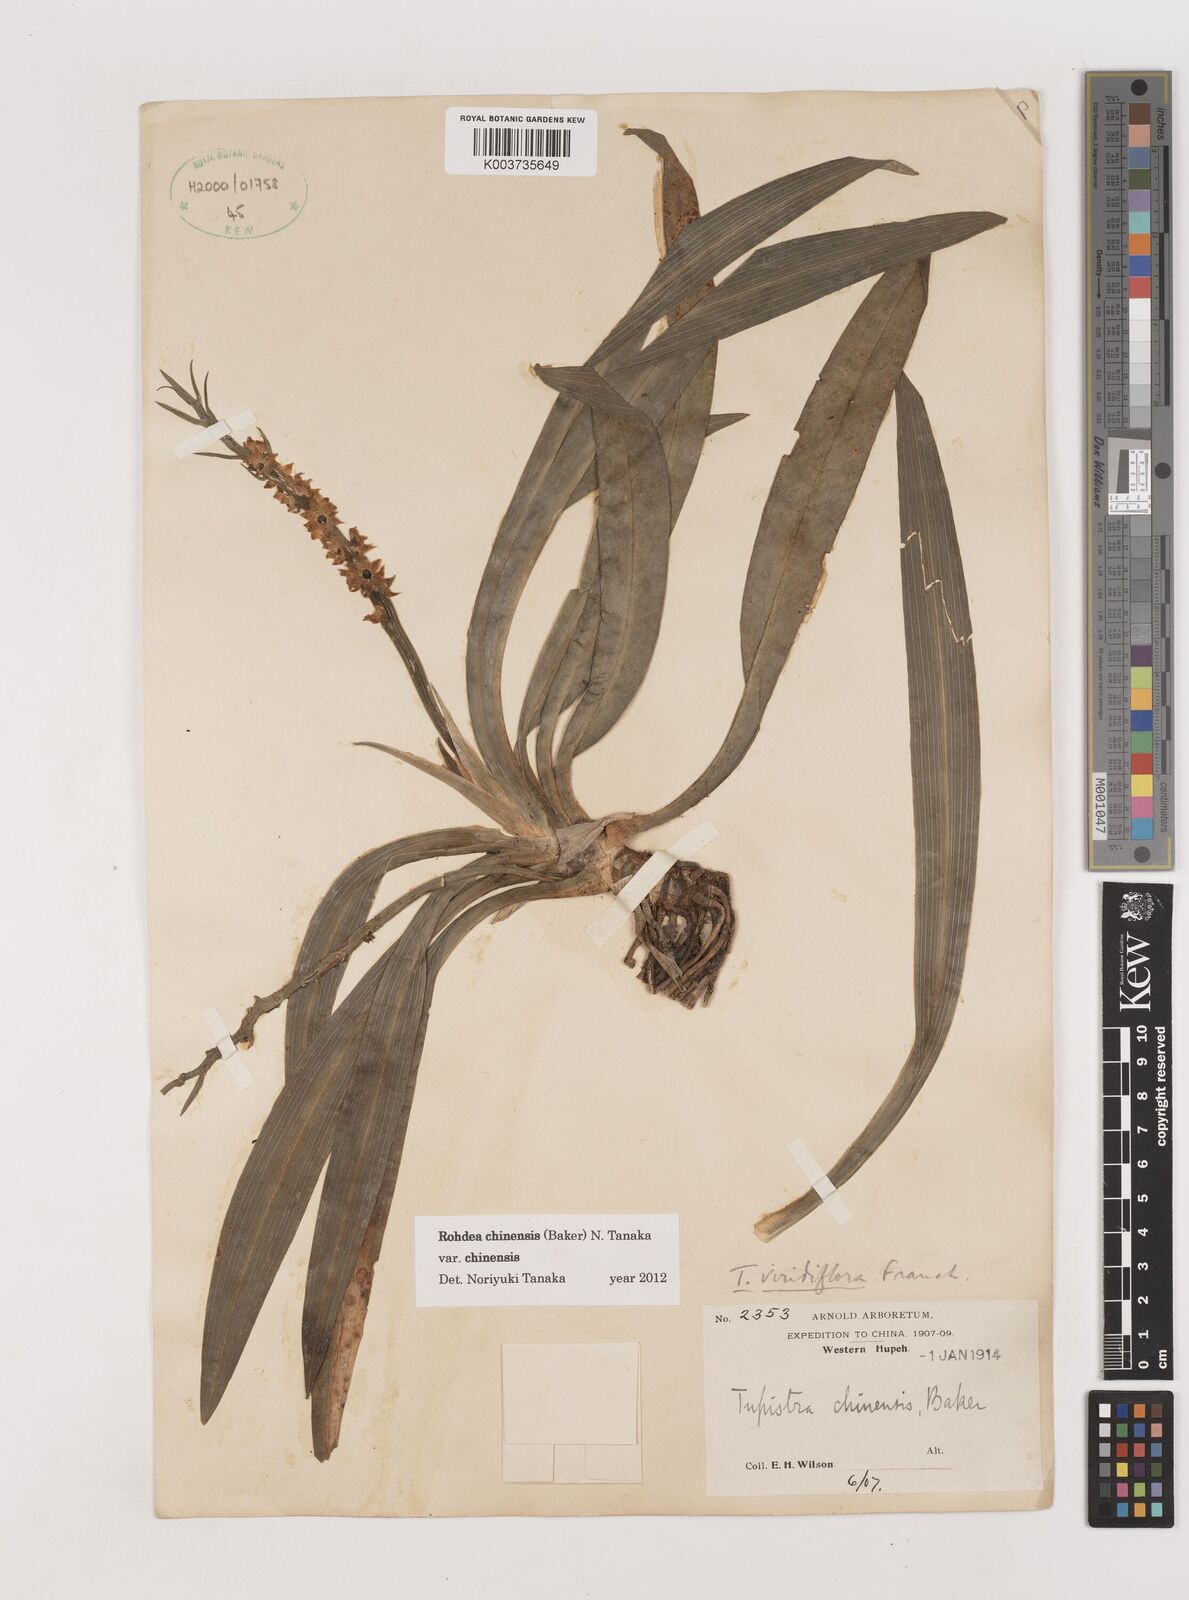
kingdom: Plantae
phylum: Tracheophyta
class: Liliopsida
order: Asparagales
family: Asparagaceae
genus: Rohdea
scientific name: Rohdea fargesii
